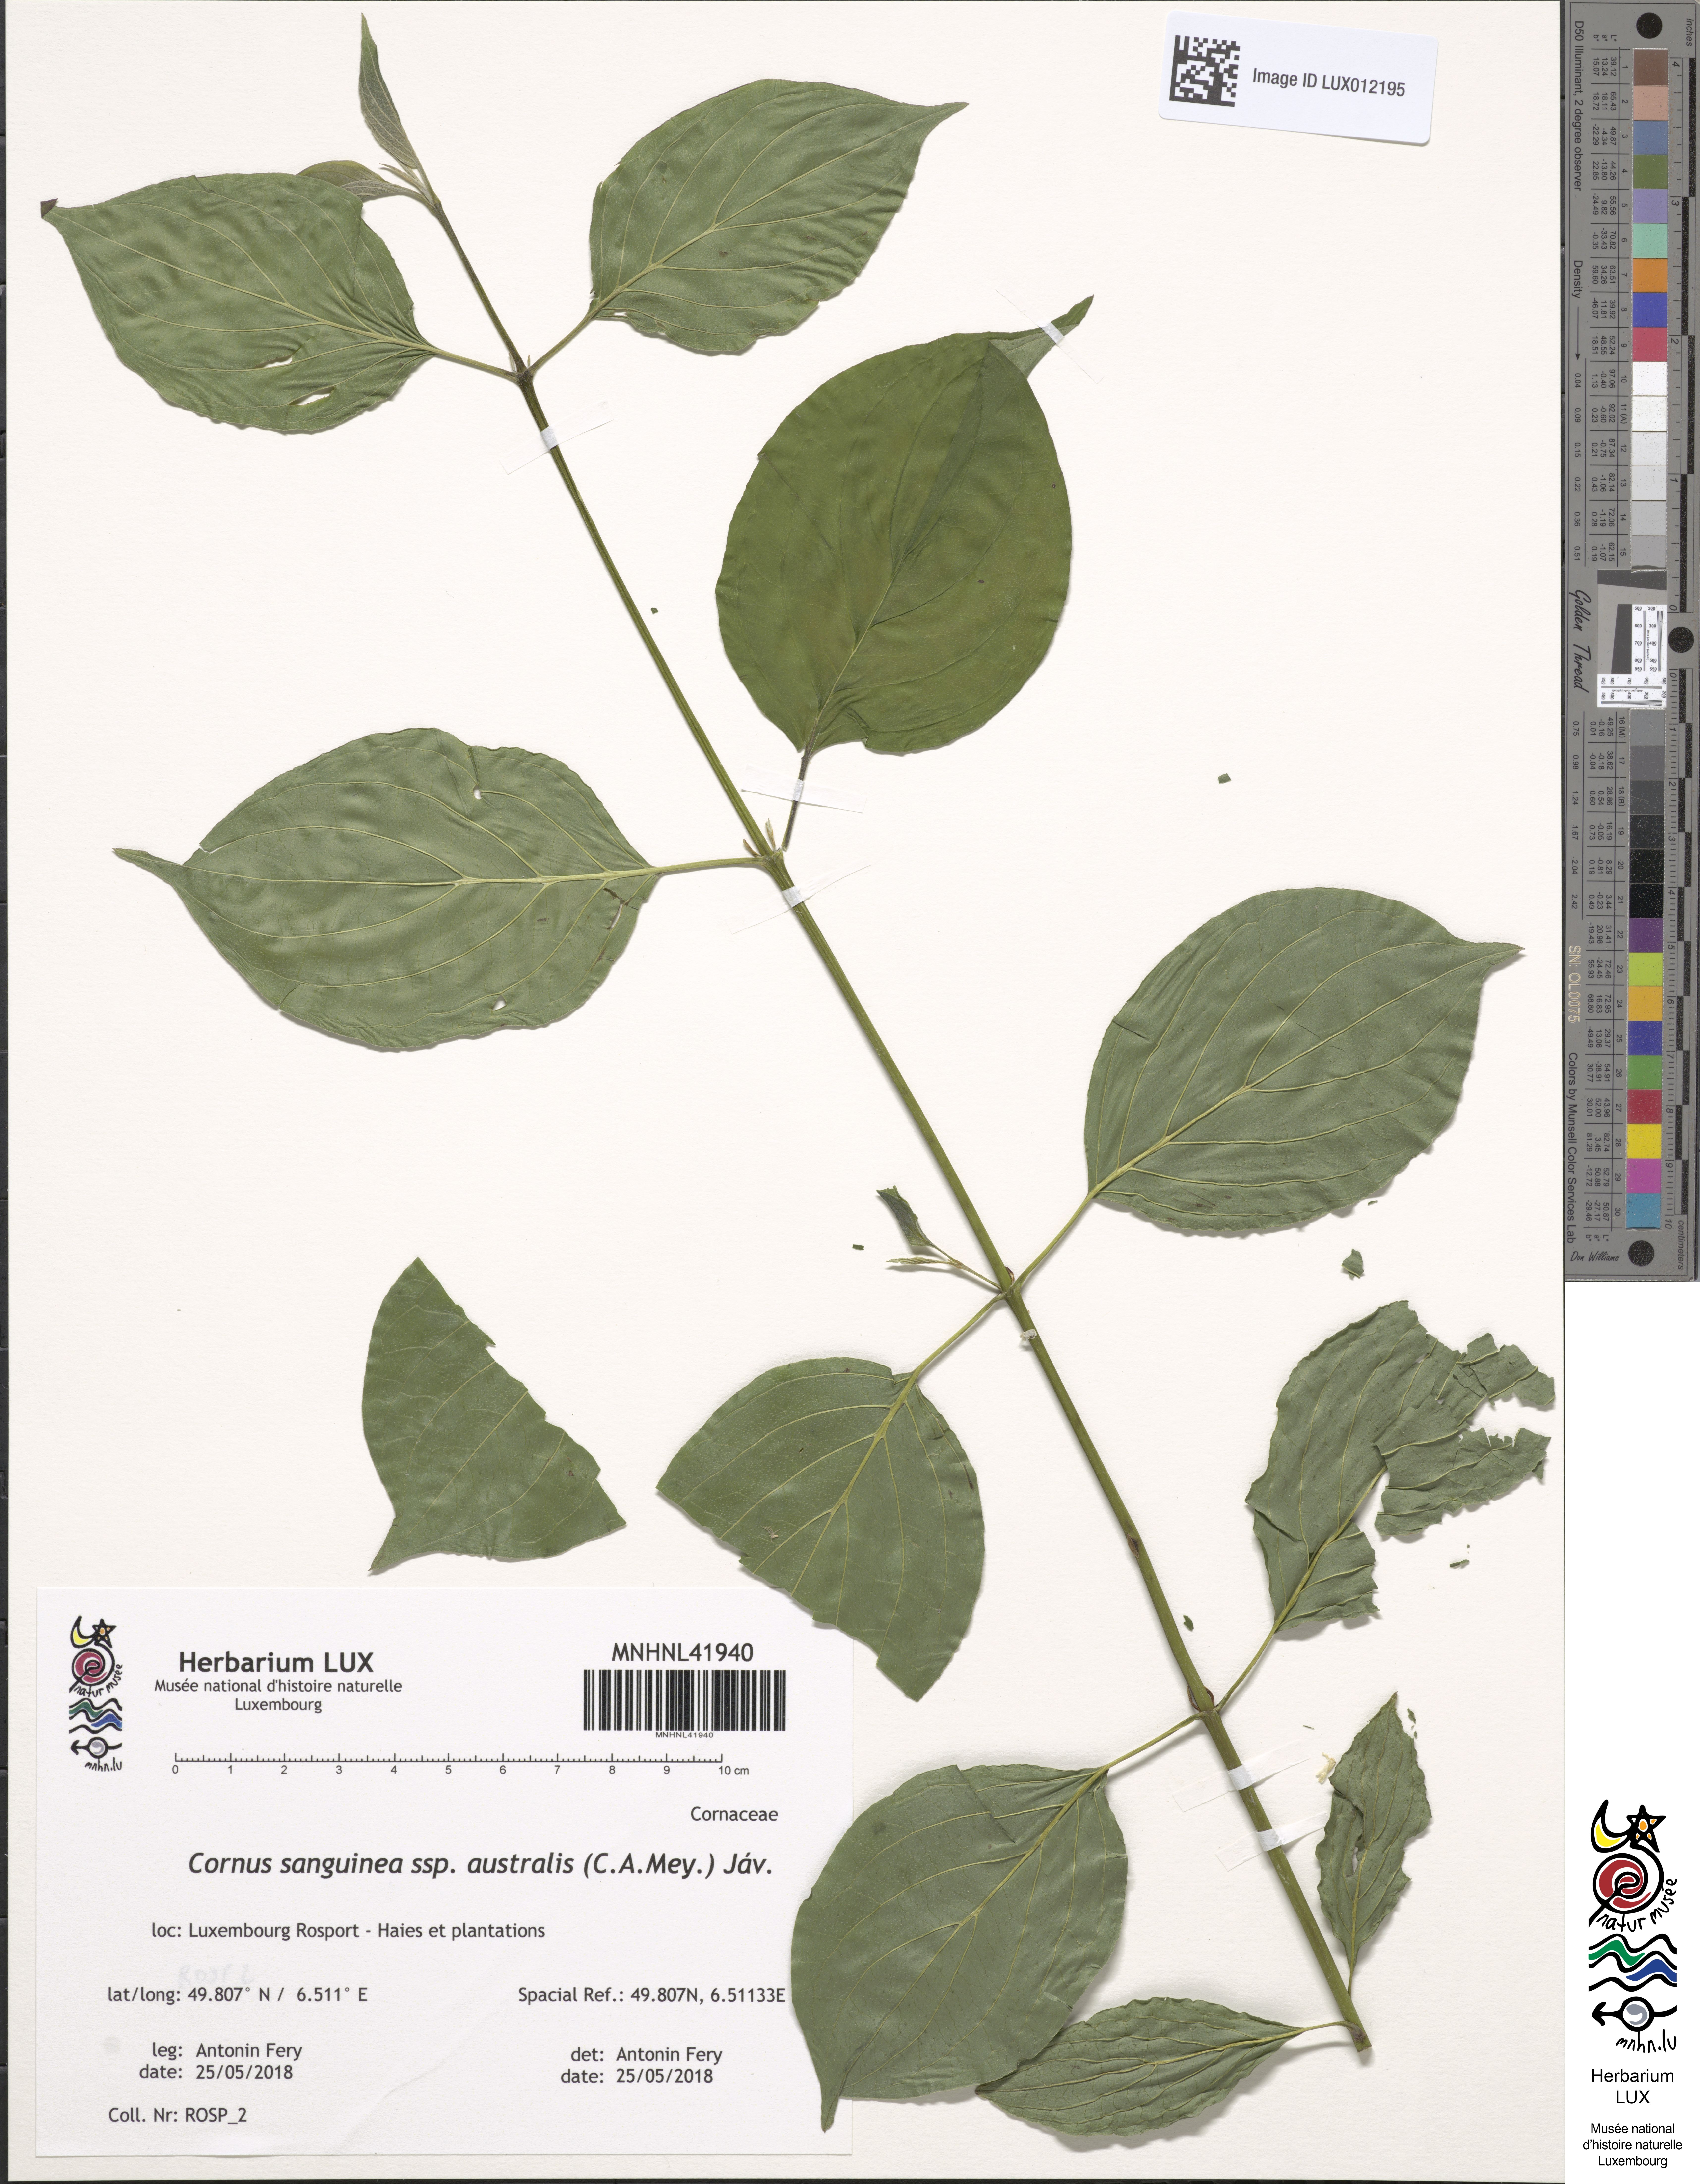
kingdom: Plantae
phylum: Tracheophyta
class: Magnoliopsida
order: Cornales
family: Cornaceae
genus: Cornus
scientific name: Cornus sanguinea
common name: Dogwood
